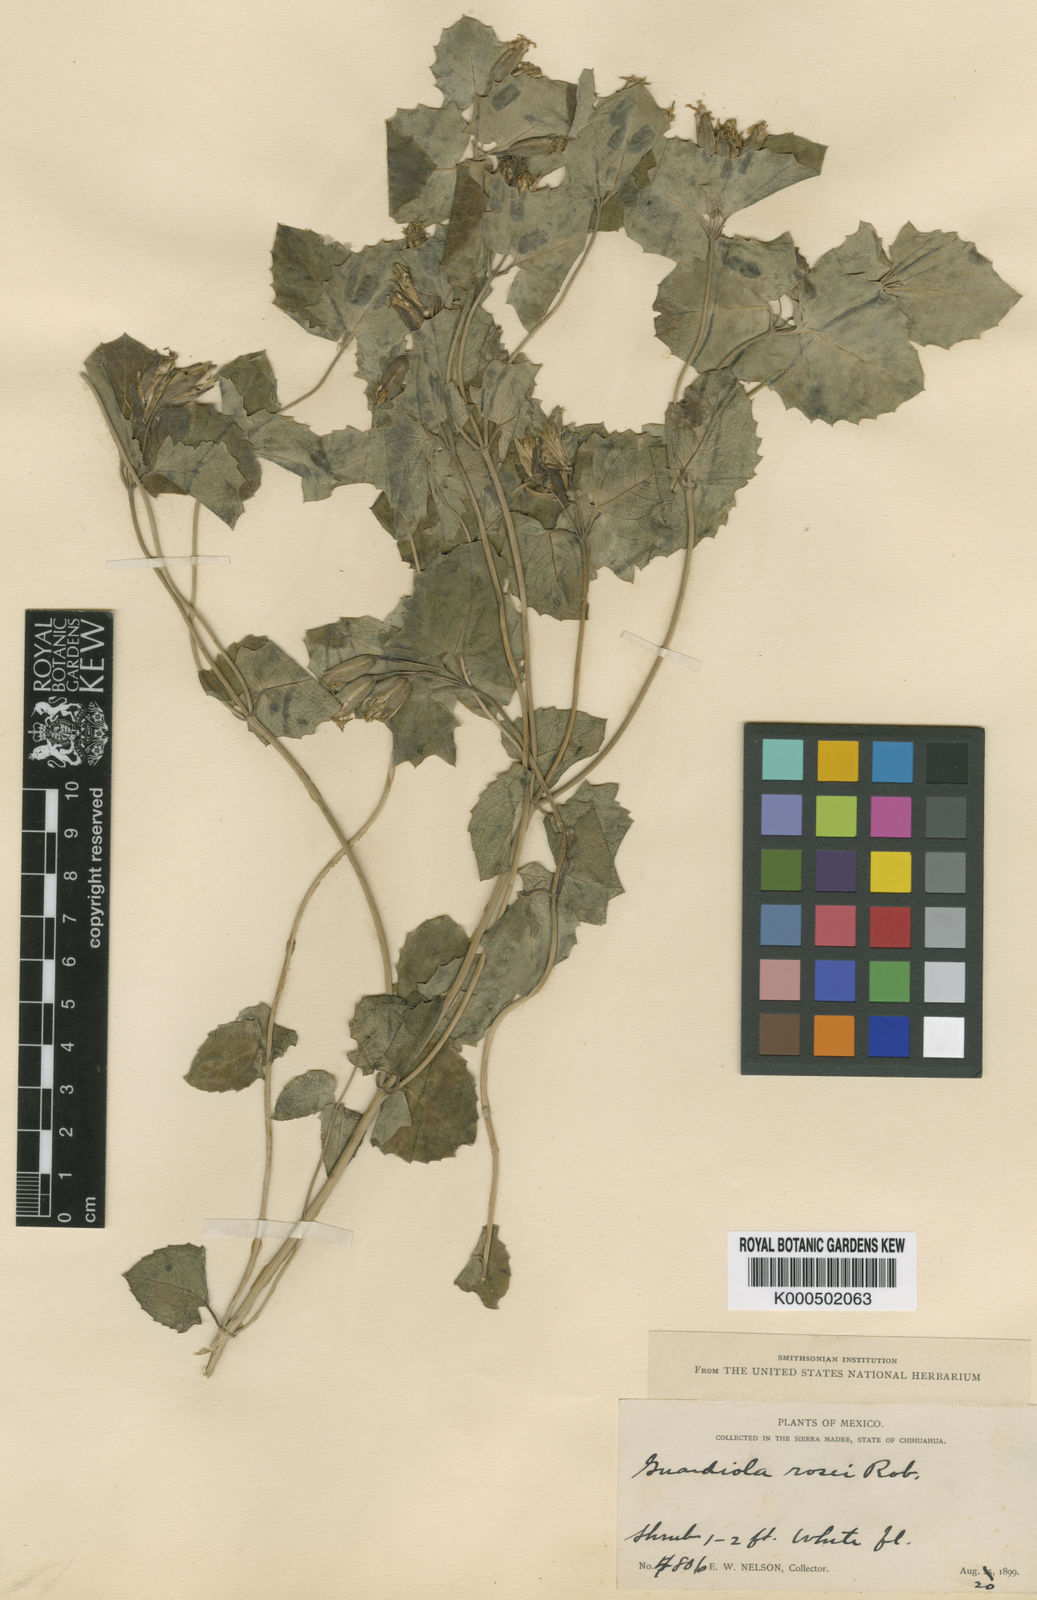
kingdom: Plantae
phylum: Tracheophyta
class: Magnoliopsida
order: Asterales
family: Asteraceae
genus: Guardiola
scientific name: Guardiola rosei
